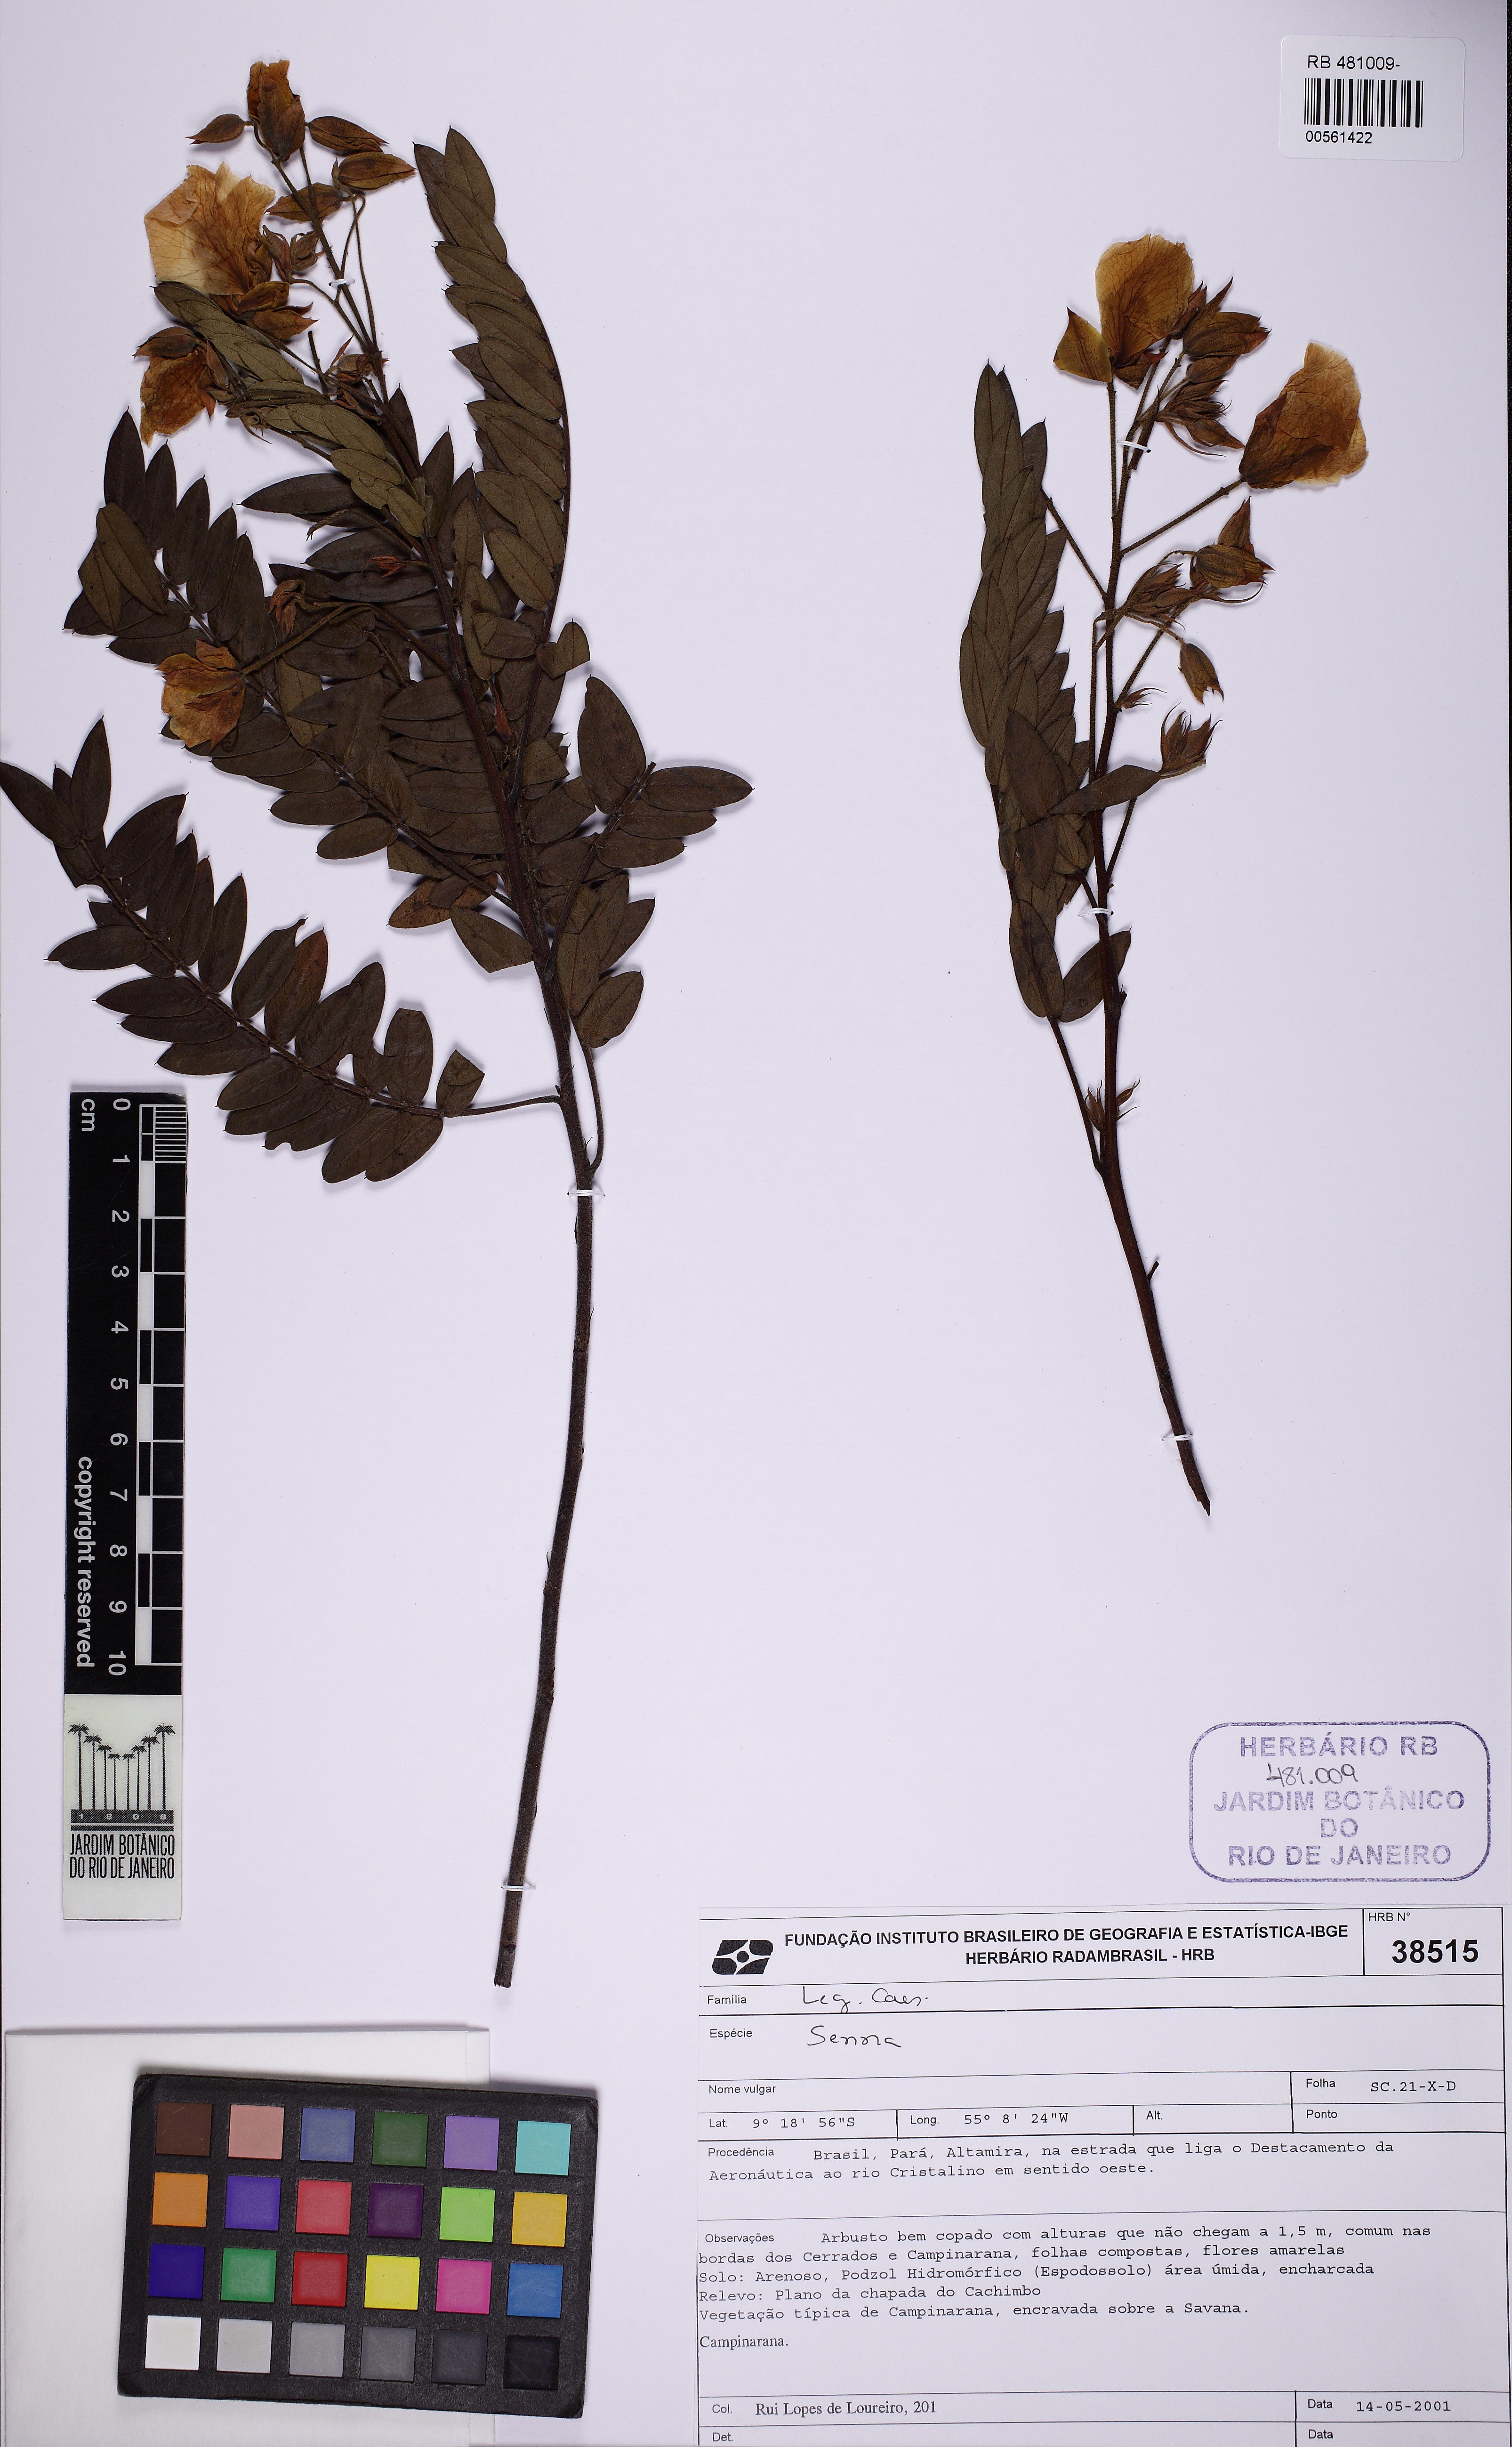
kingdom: Plantae
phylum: Tracheophyta
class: Magnoliopsida
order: Fabales
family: Fabaceae
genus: Chamaecrista
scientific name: Chamaecrista
